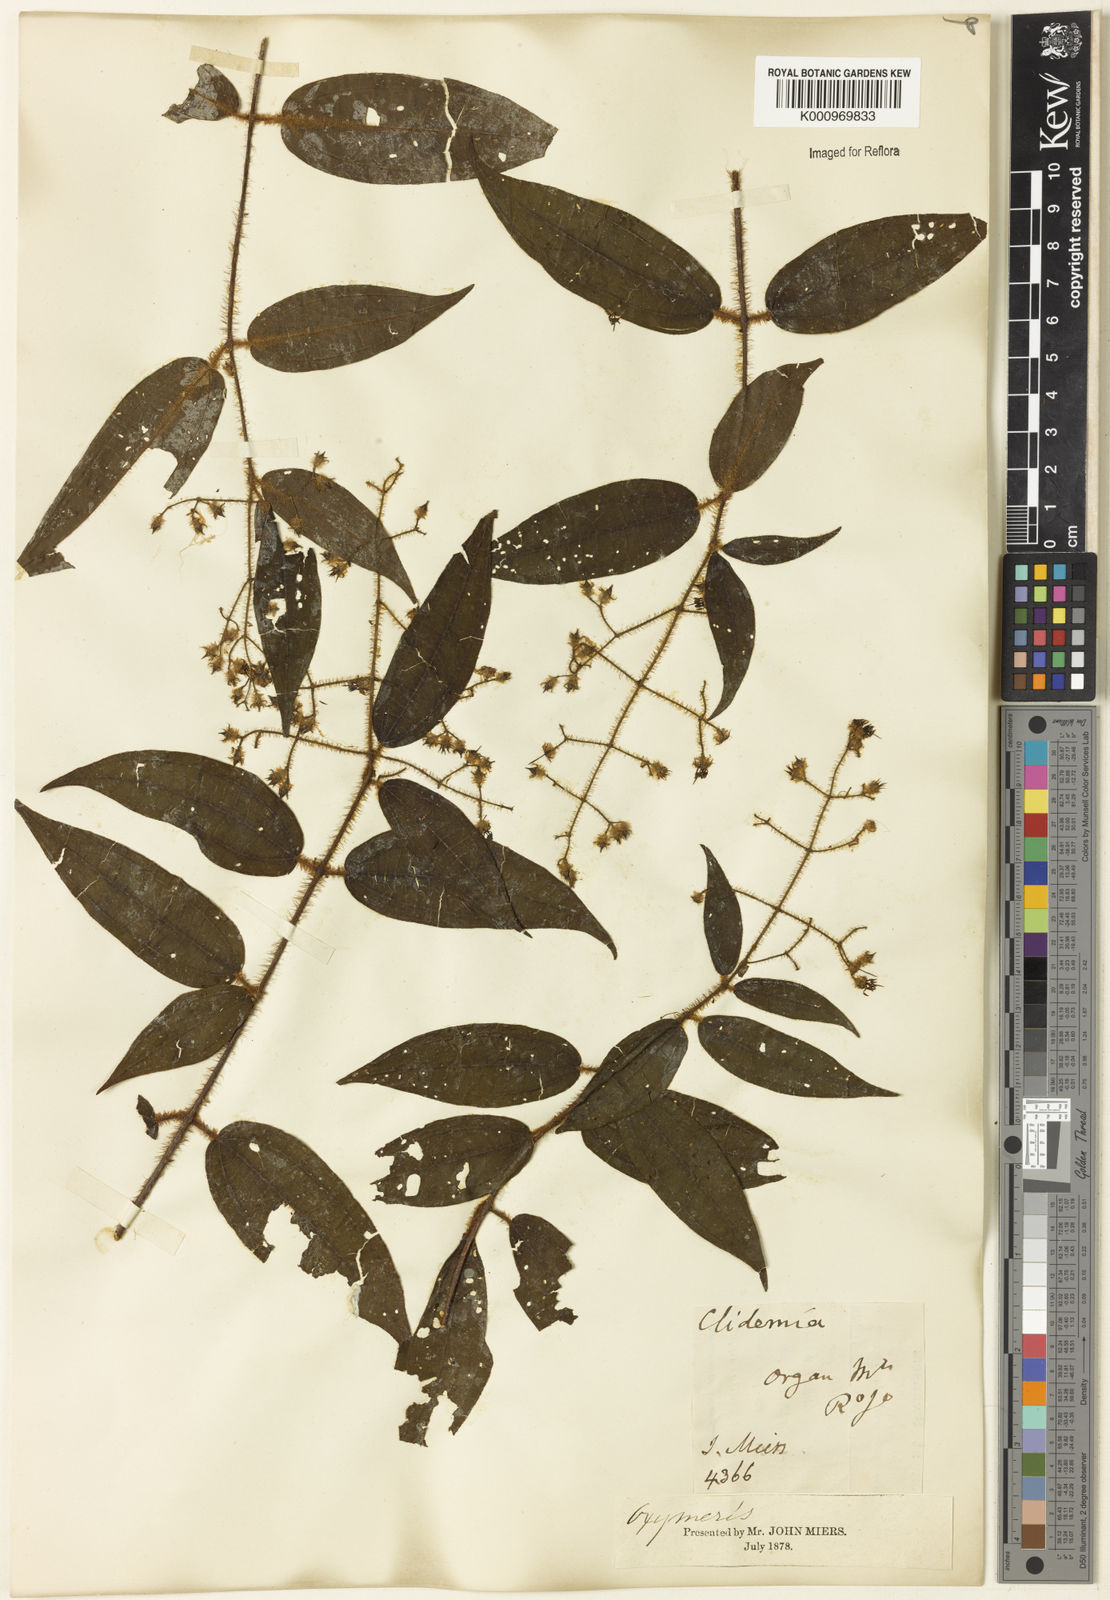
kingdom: Plantae
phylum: Tracheophyta
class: Magnoliopsida
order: Myrtales
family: Melastomataceae
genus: Miconia
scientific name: Miconia
